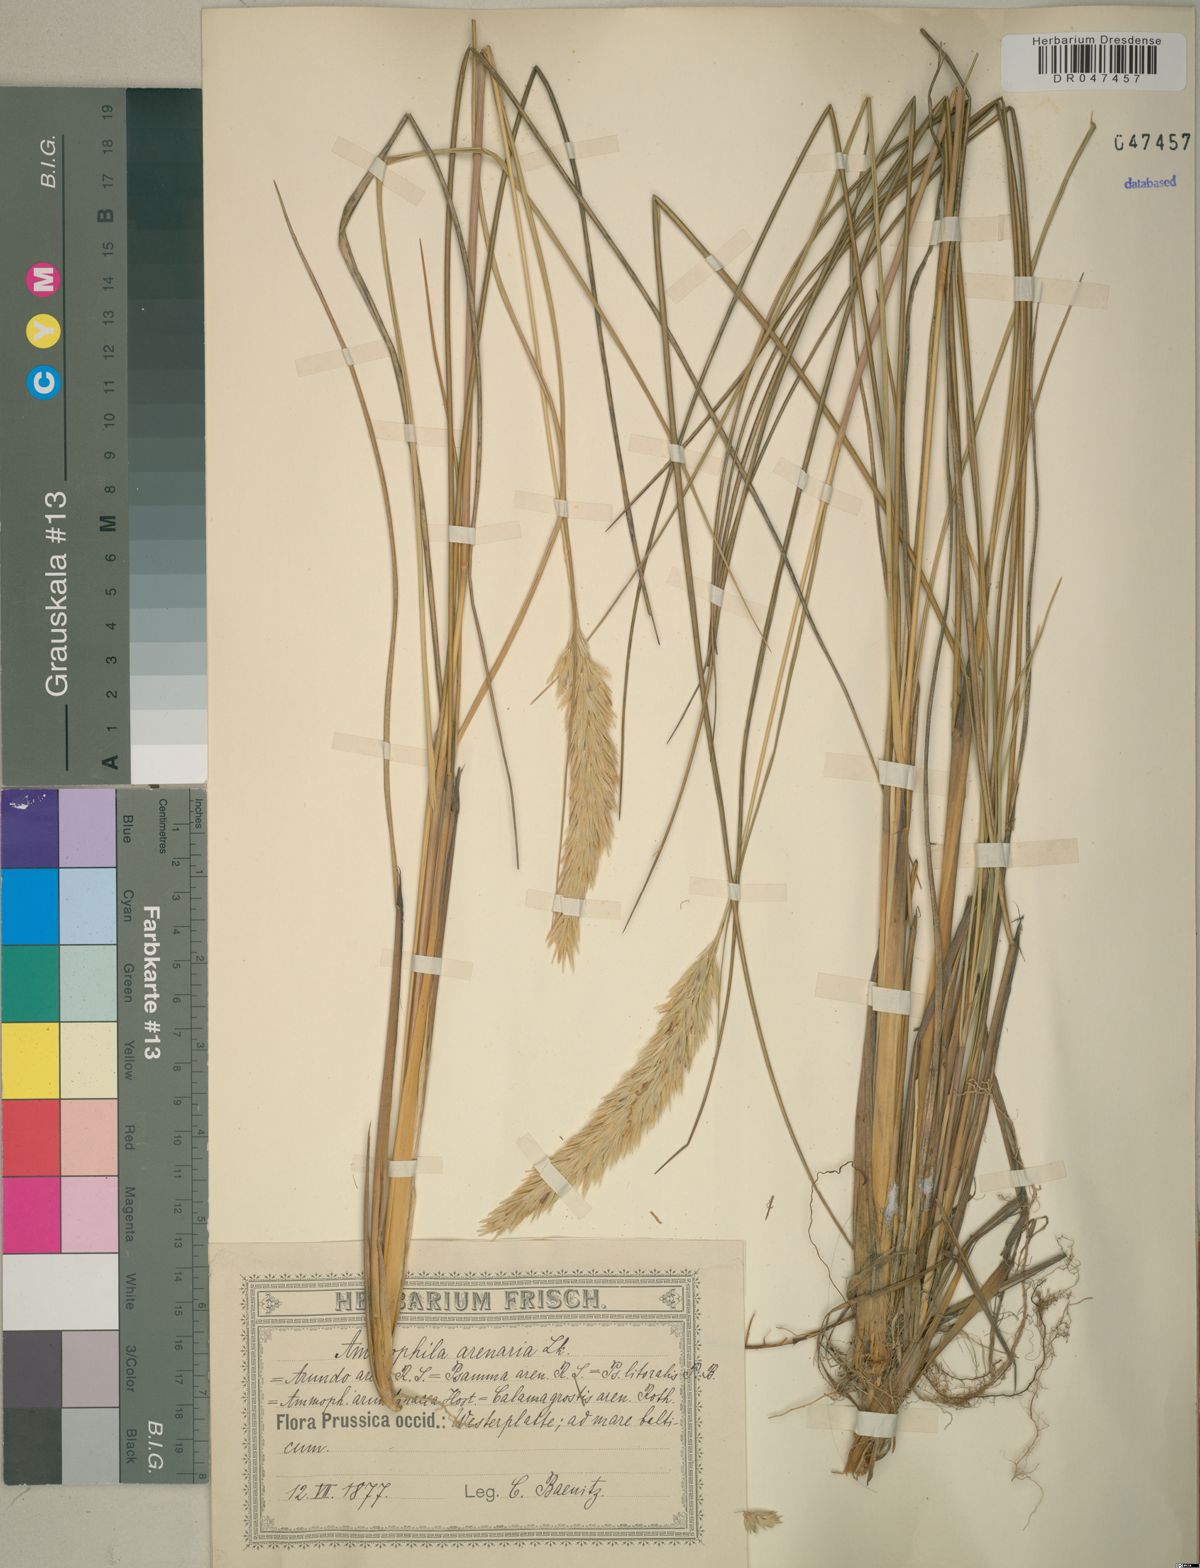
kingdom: Plantae
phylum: Tracheophyta
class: Liliopsida
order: Poales
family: Poaceae
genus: Calamagrostis
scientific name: Calamagrostis arenaria
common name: European beachgrass
